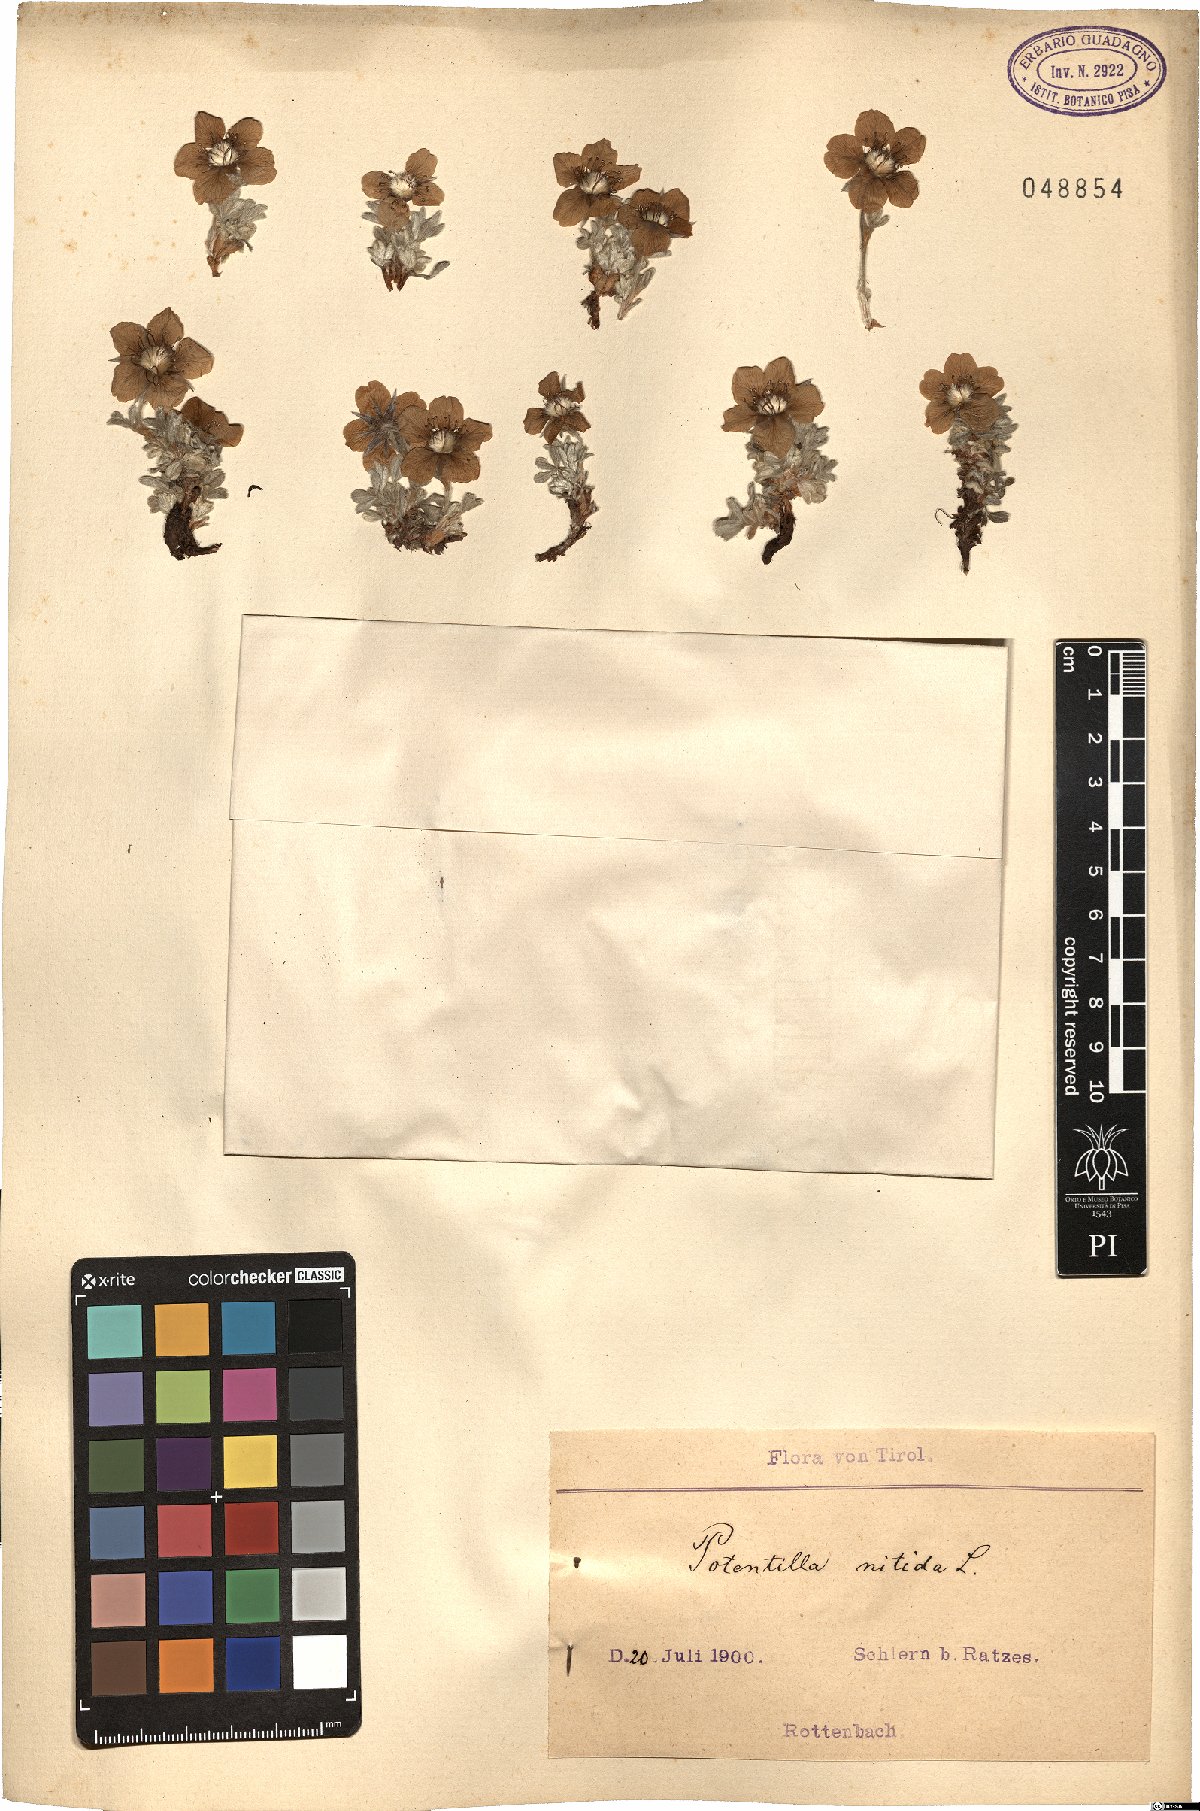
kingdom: Plantae
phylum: Tracheophyta
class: Magnoliopsida
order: Rosales
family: Rosaceae
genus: Potentilla
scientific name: Potentilla nitida
